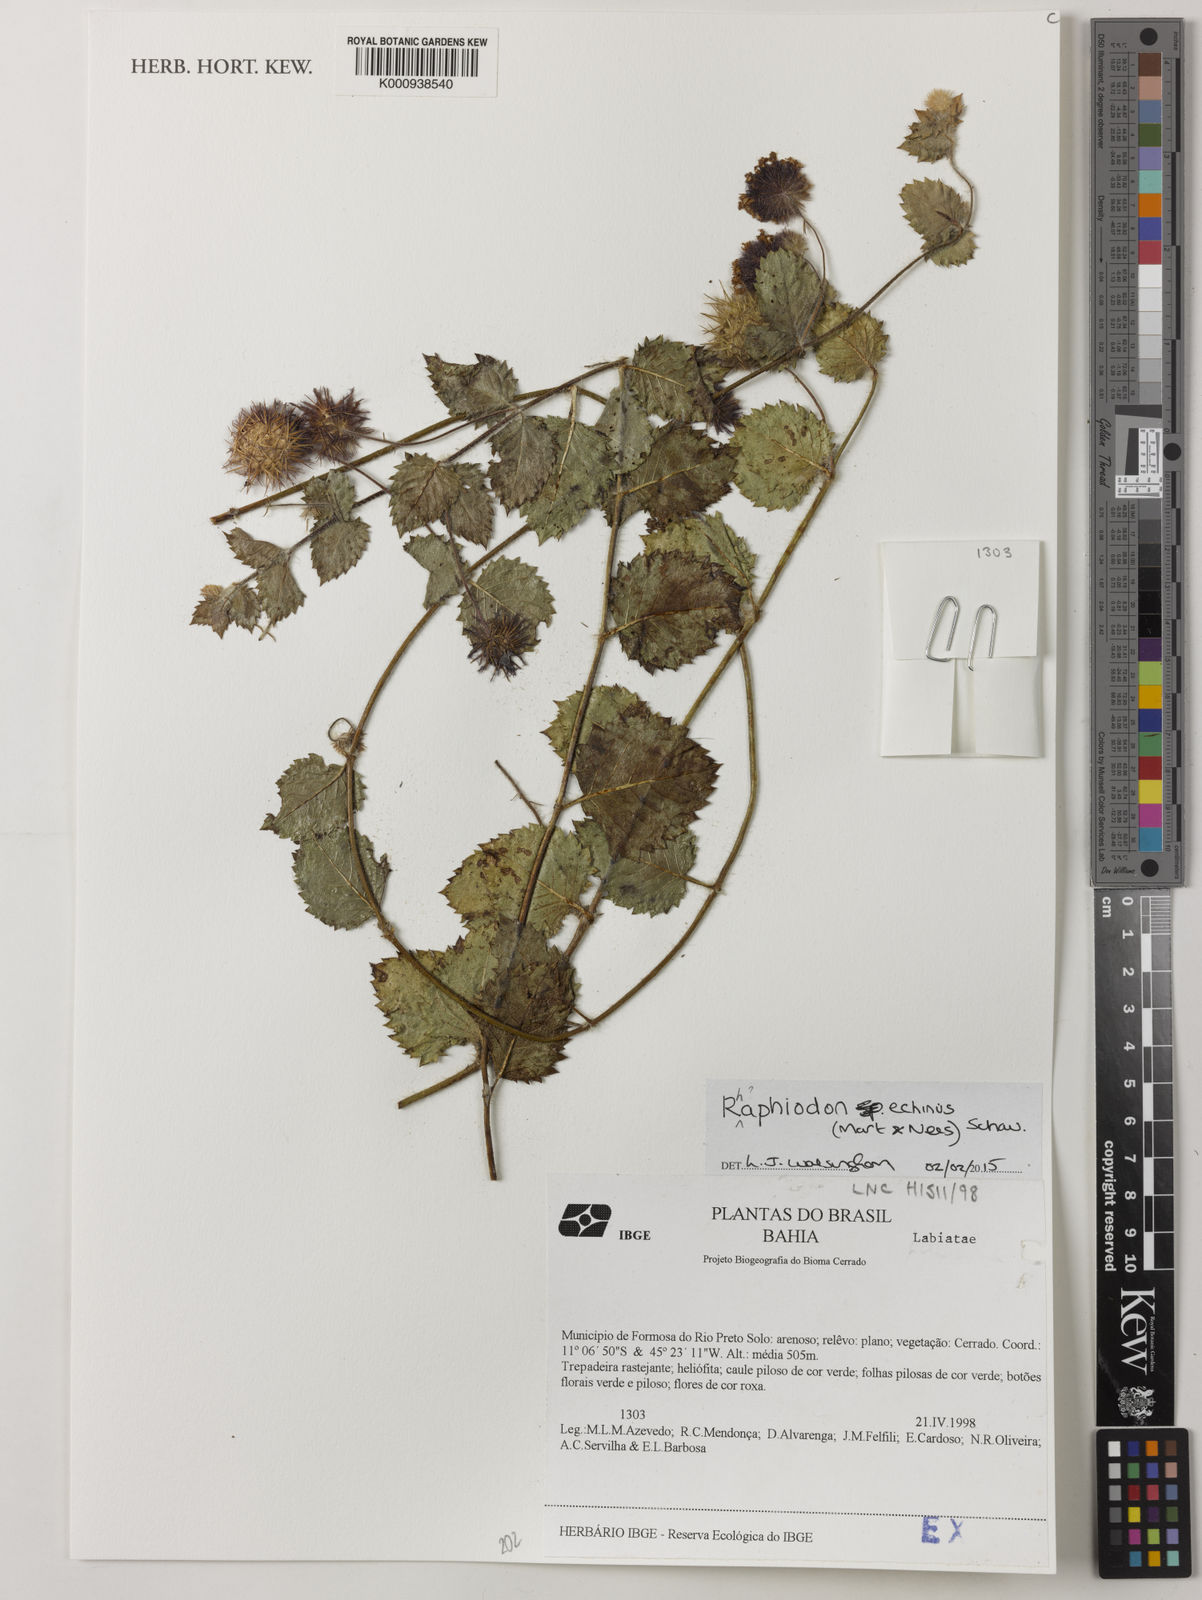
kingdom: Plantae
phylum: Tracheophyta
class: Magnoliopsida
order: Lamiales
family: Lamiaceae
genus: Rhaphiodon
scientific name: Rhaphiodon
